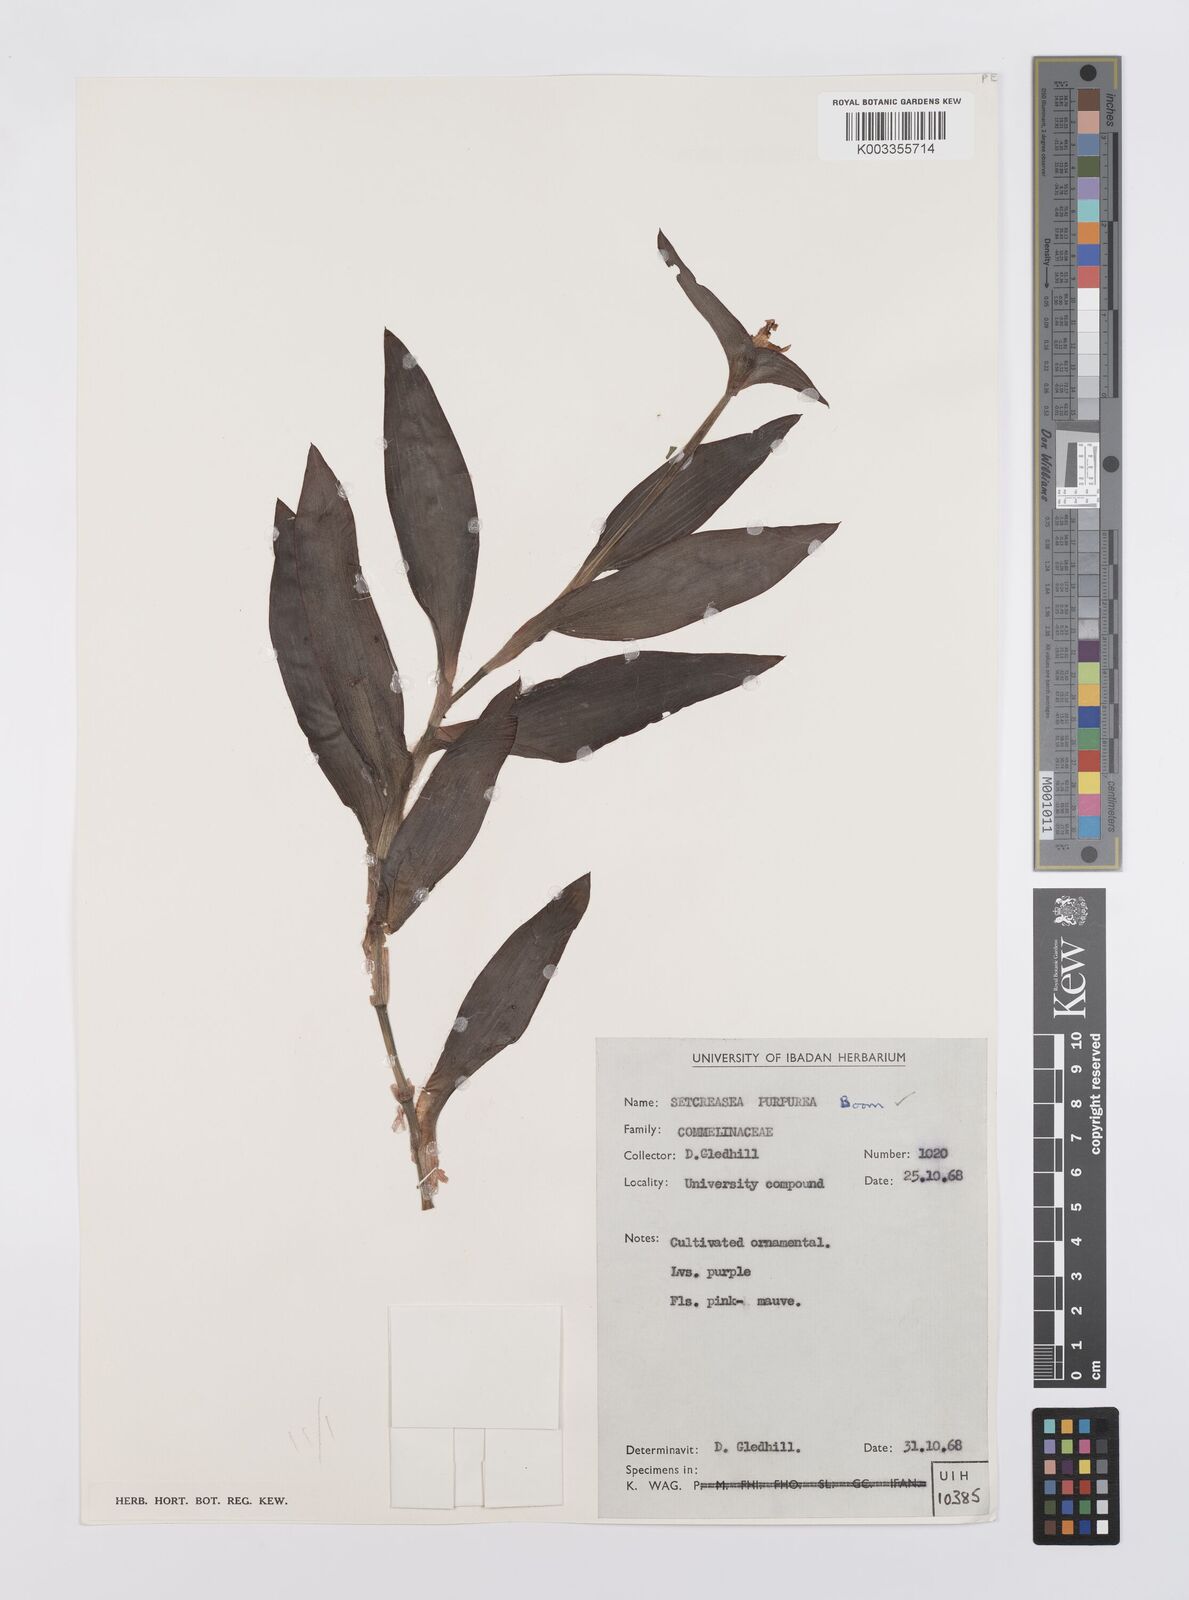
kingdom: Plantae
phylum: Tracheophyta
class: Liliopsida
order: Commelinales
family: Commelinaceae
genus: Callisia
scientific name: Callisia purpurascens
